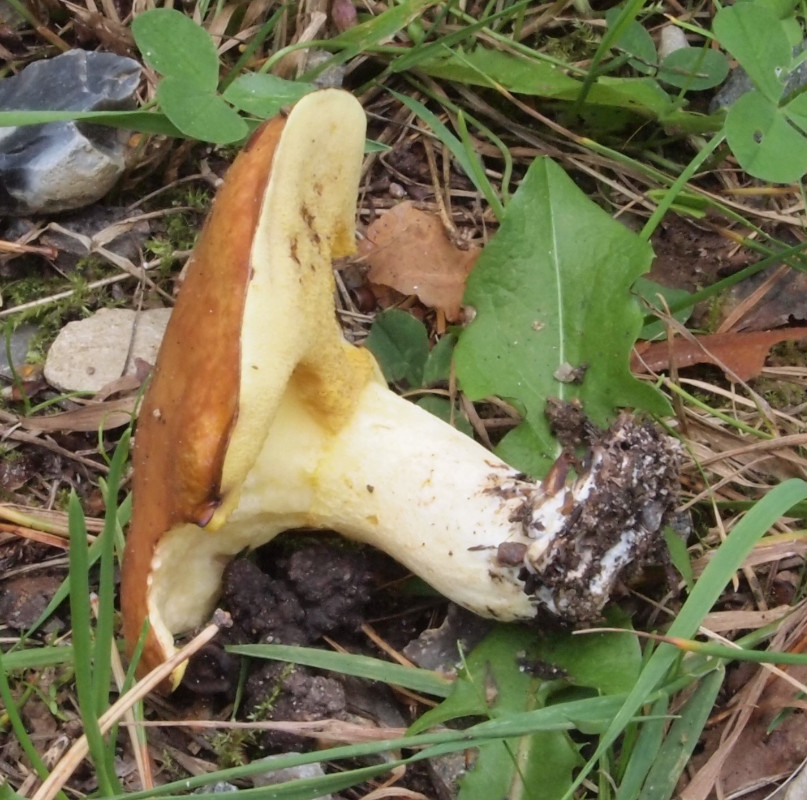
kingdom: Fungi
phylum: Basidiomycota
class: Agaricomycetes
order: Boletales
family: Suillaceae
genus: Suillus
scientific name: Suillus granulatus
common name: kornet slimrørhat
